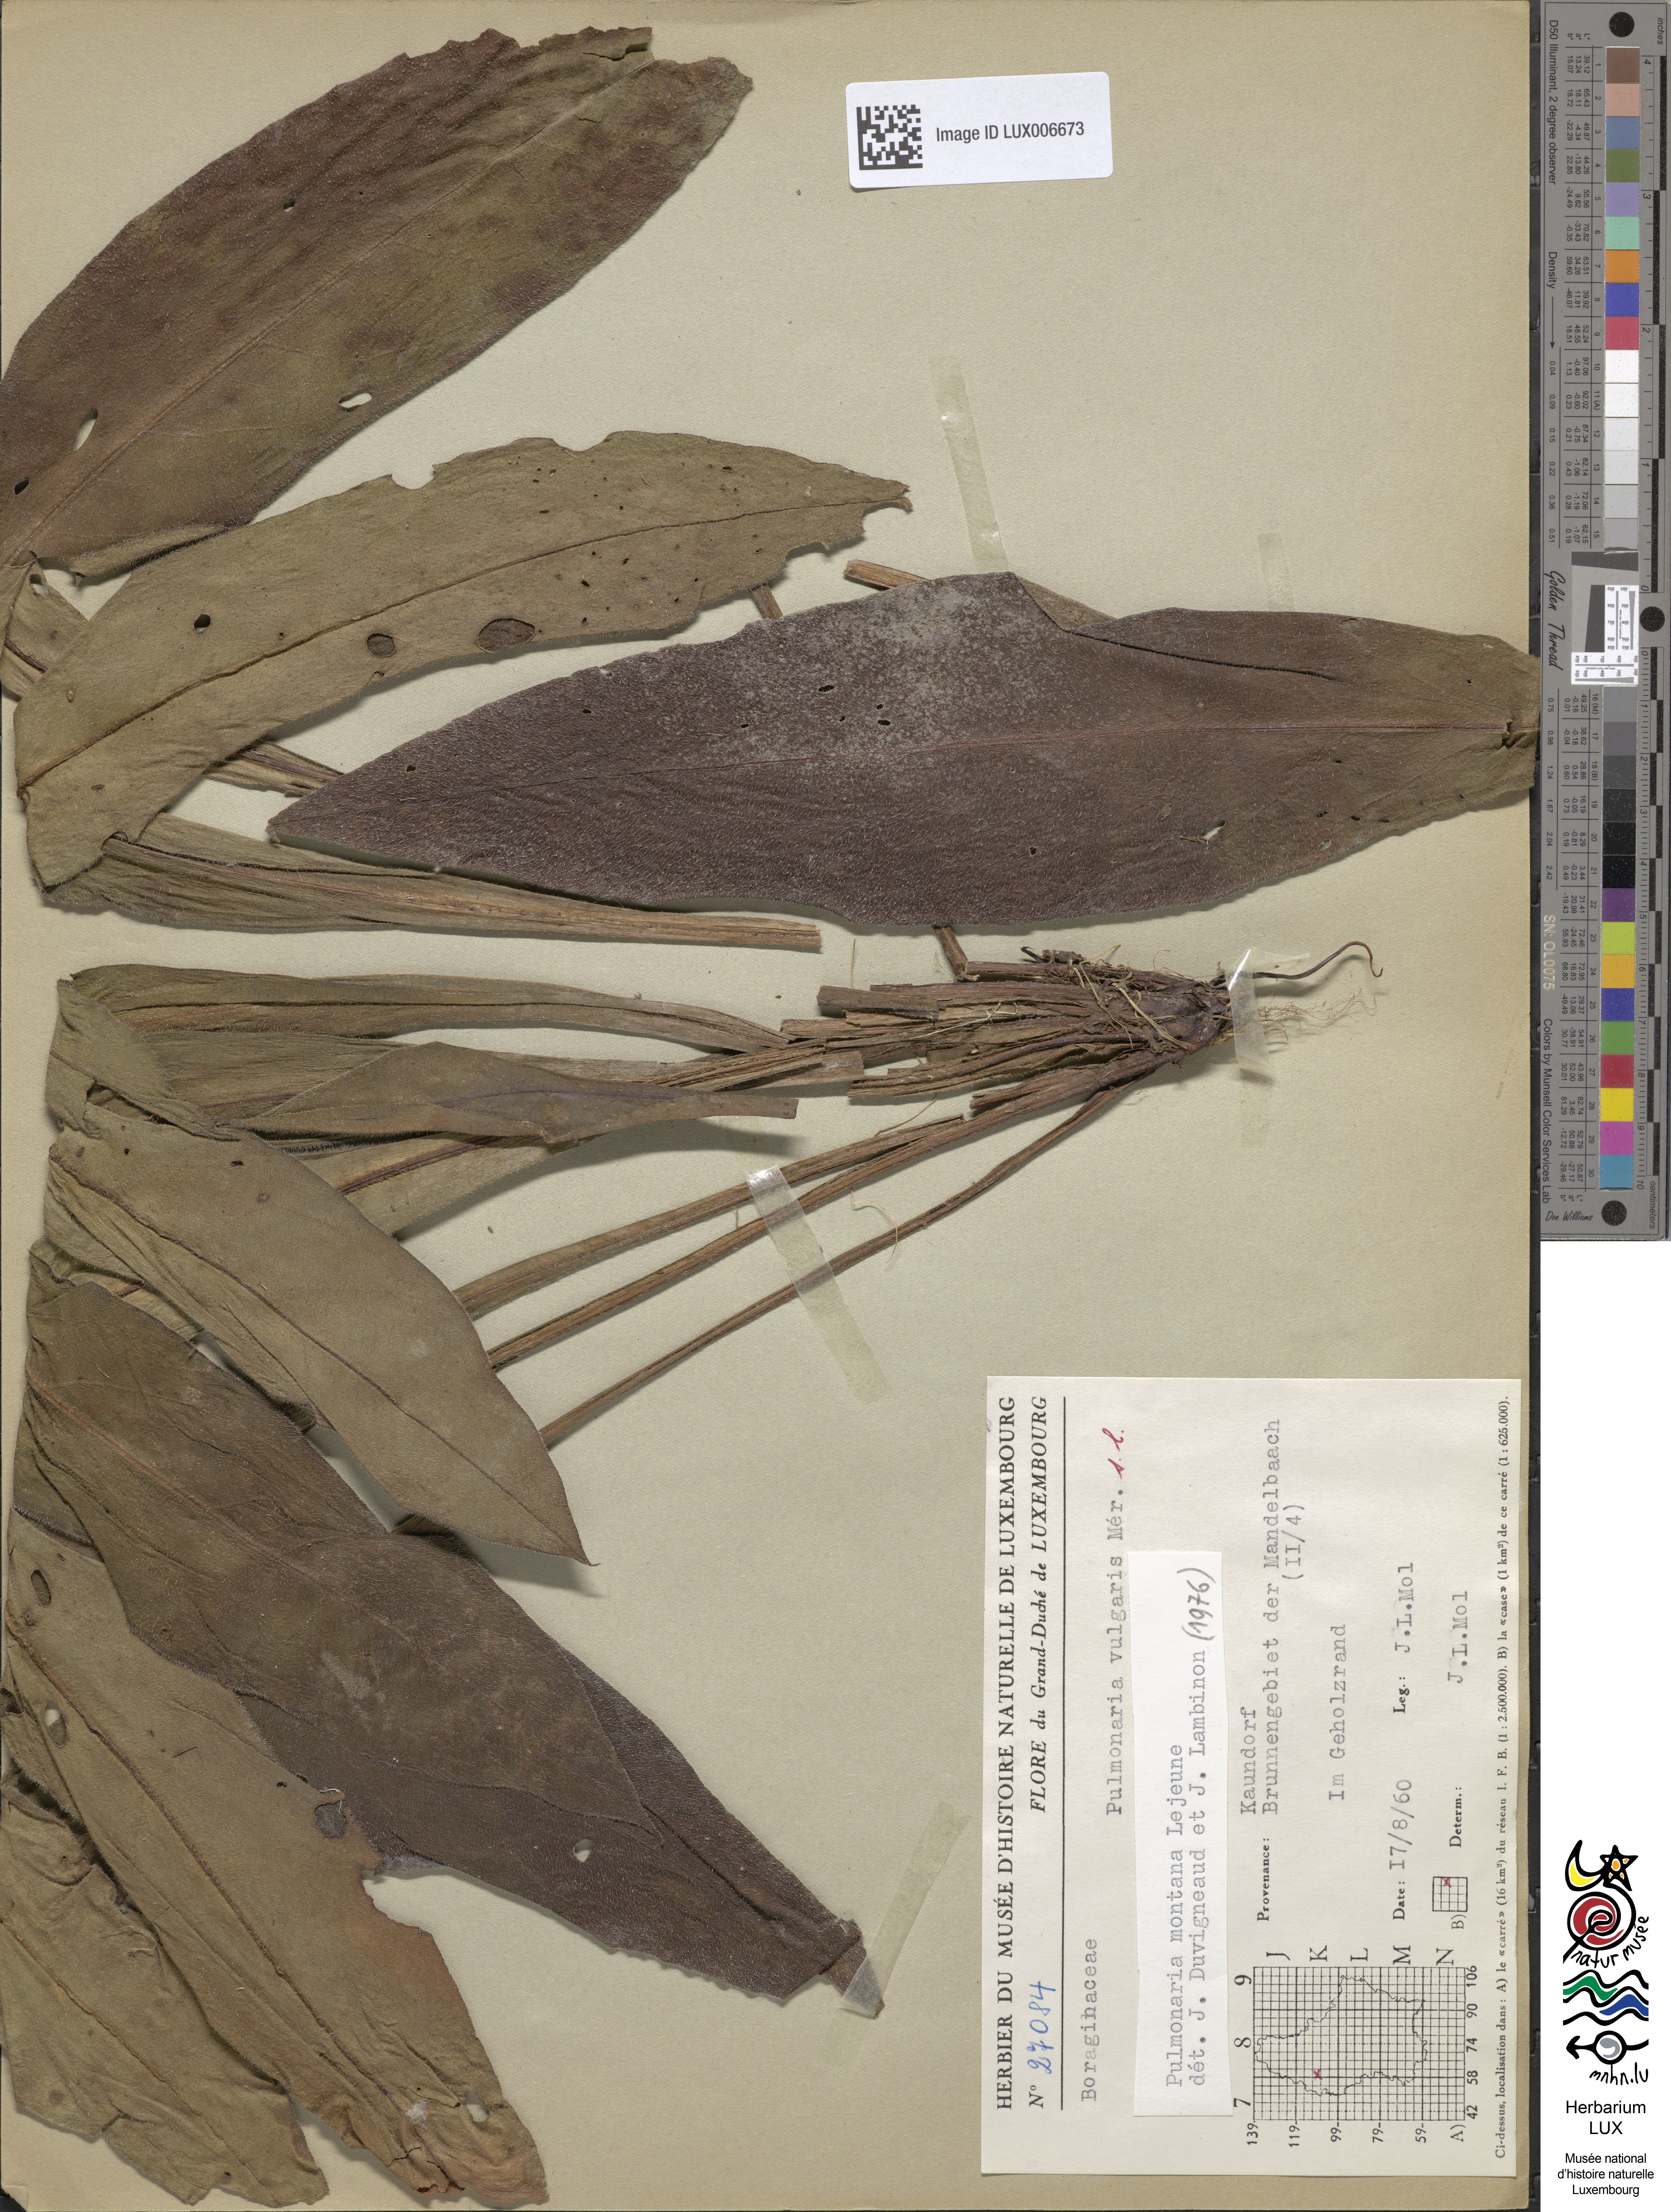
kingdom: Plantae
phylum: Tracheophyta
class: Magnoliopsida
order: Boraginales
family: Boraginaceae
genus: Pulmonaria
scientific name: Pulmonaria
